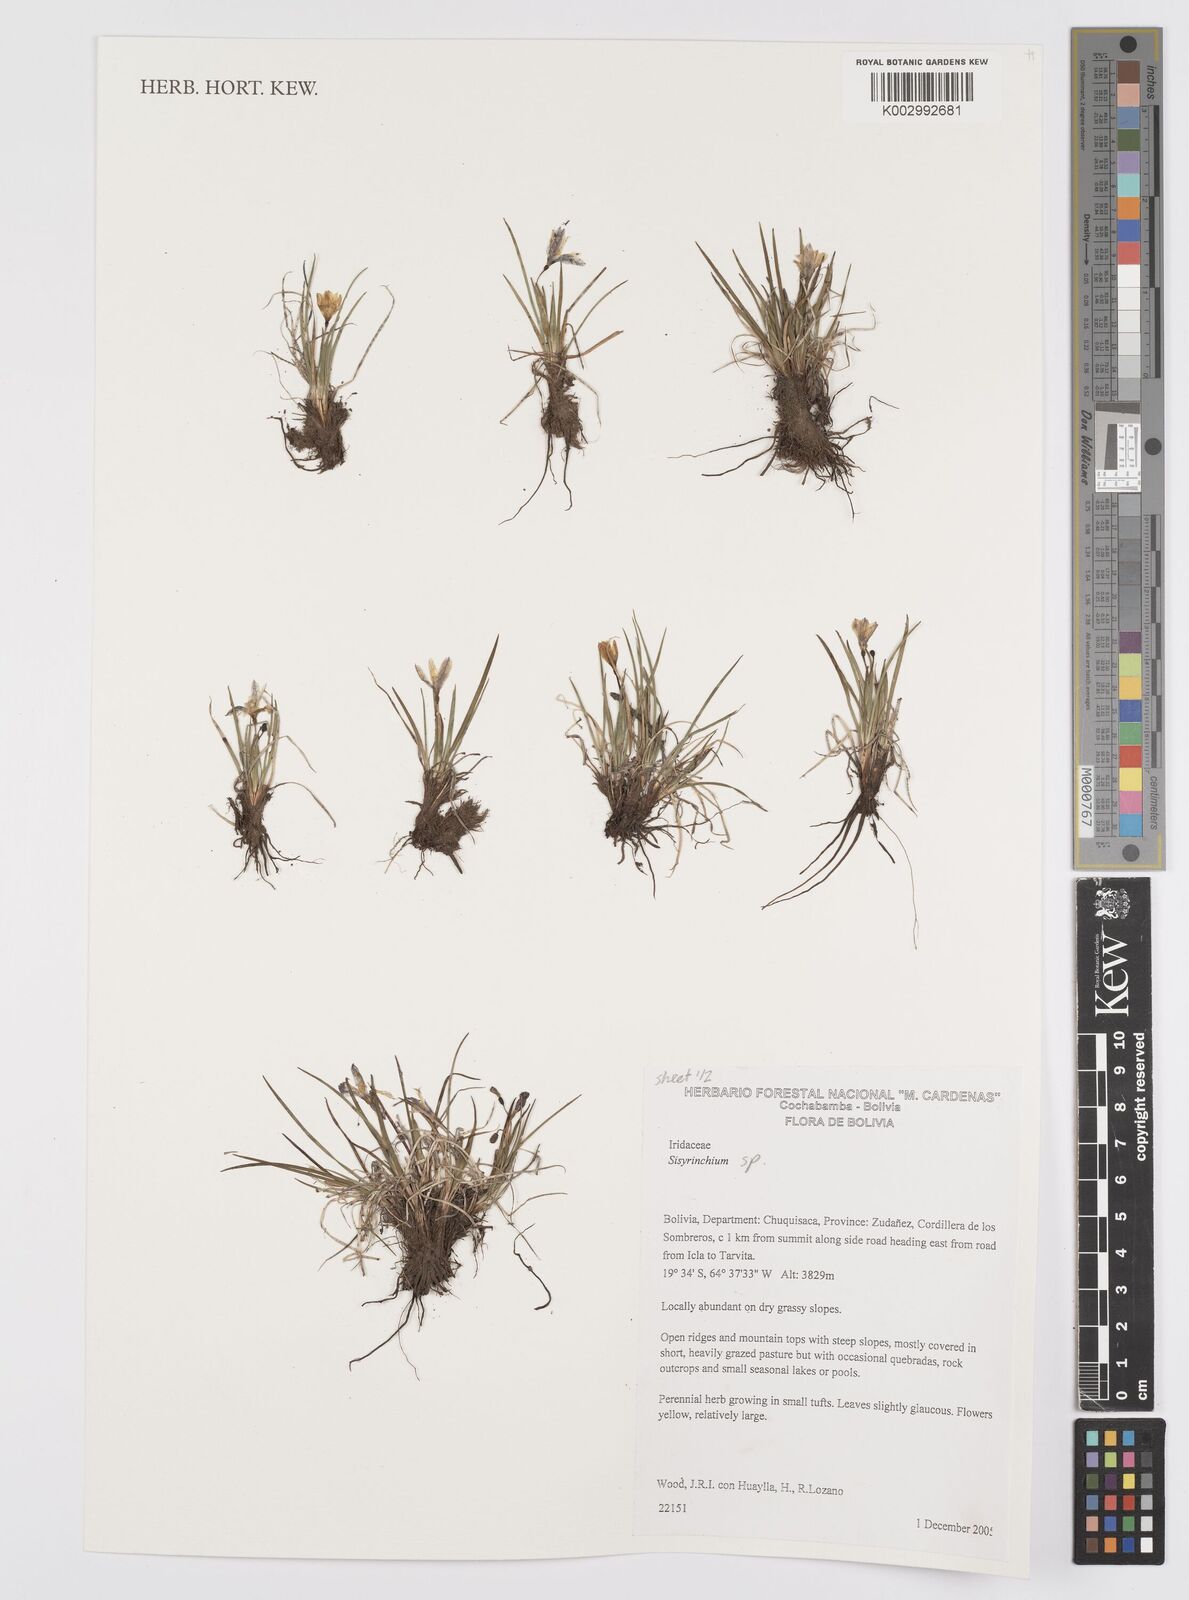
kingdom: Plantae
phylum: Tracheophyta
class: Liliopsida
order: Asparagales
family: Iridaceae
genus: Sisyrinchium
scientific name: Sisyrinchium
